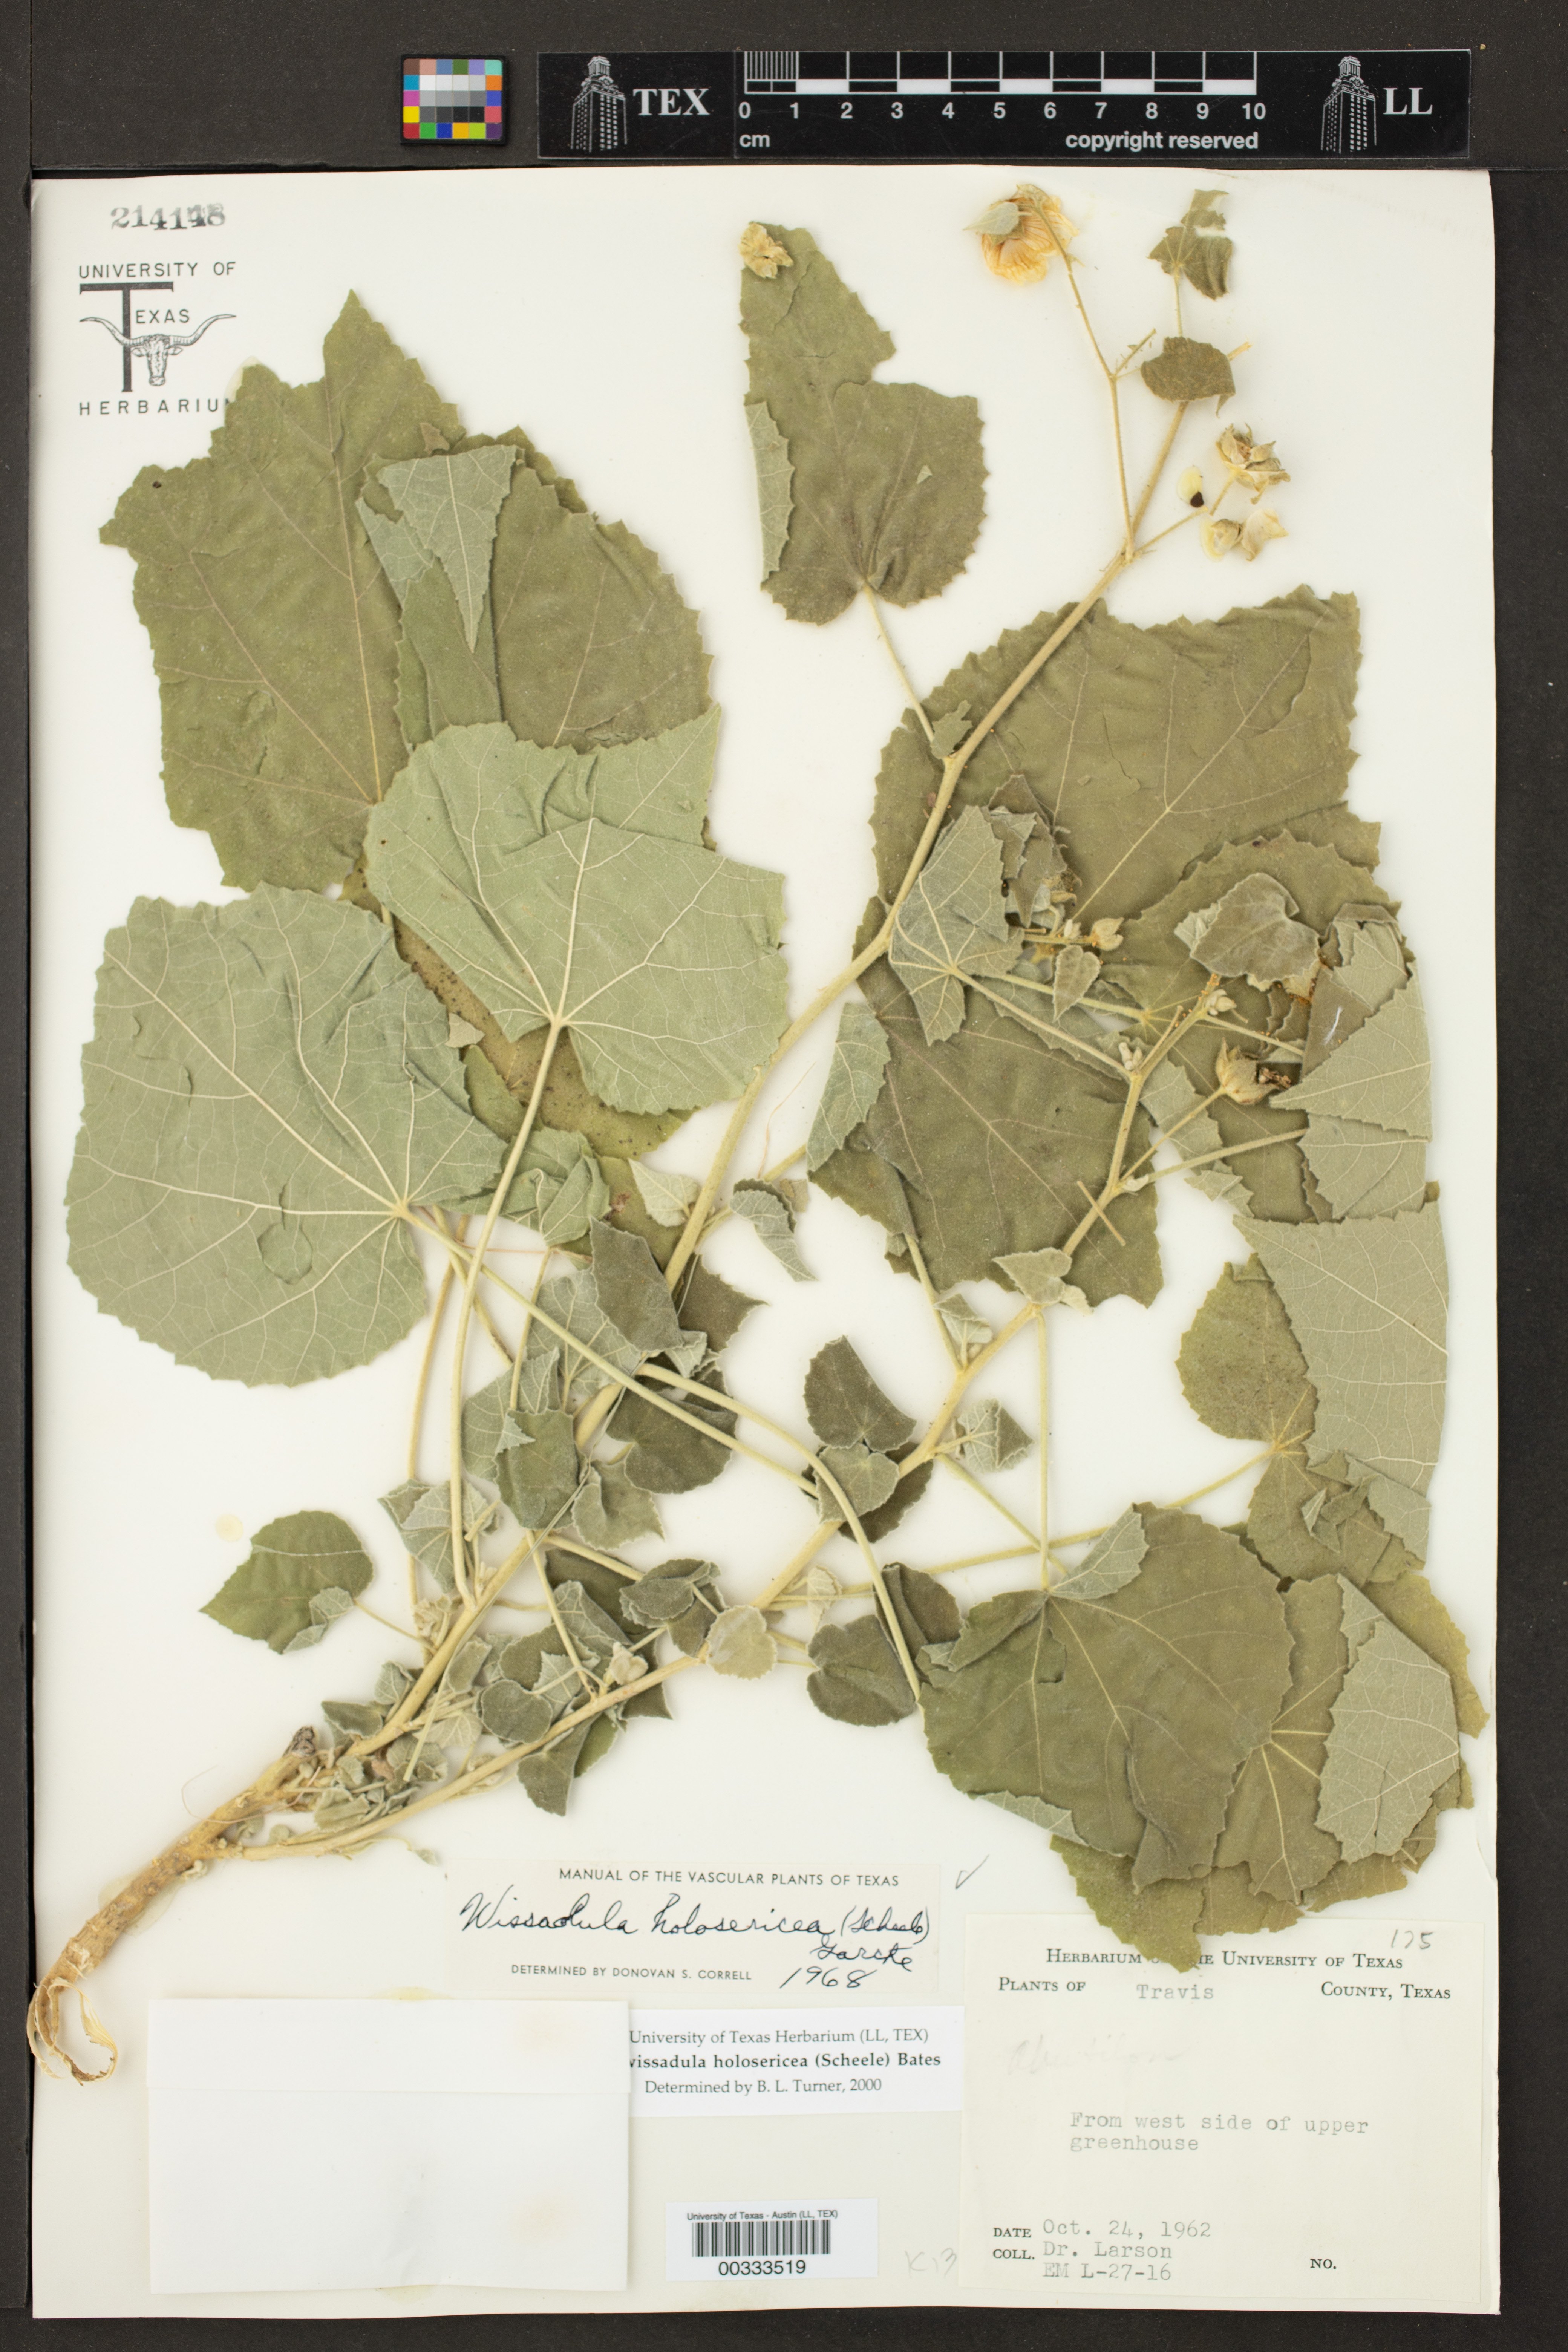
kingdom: Plantae
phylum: Tracheophyta
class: Magnoliopsida
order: Malvales
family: Malvaceae
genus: Allowissadula
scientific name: Allowissadula holosericea
